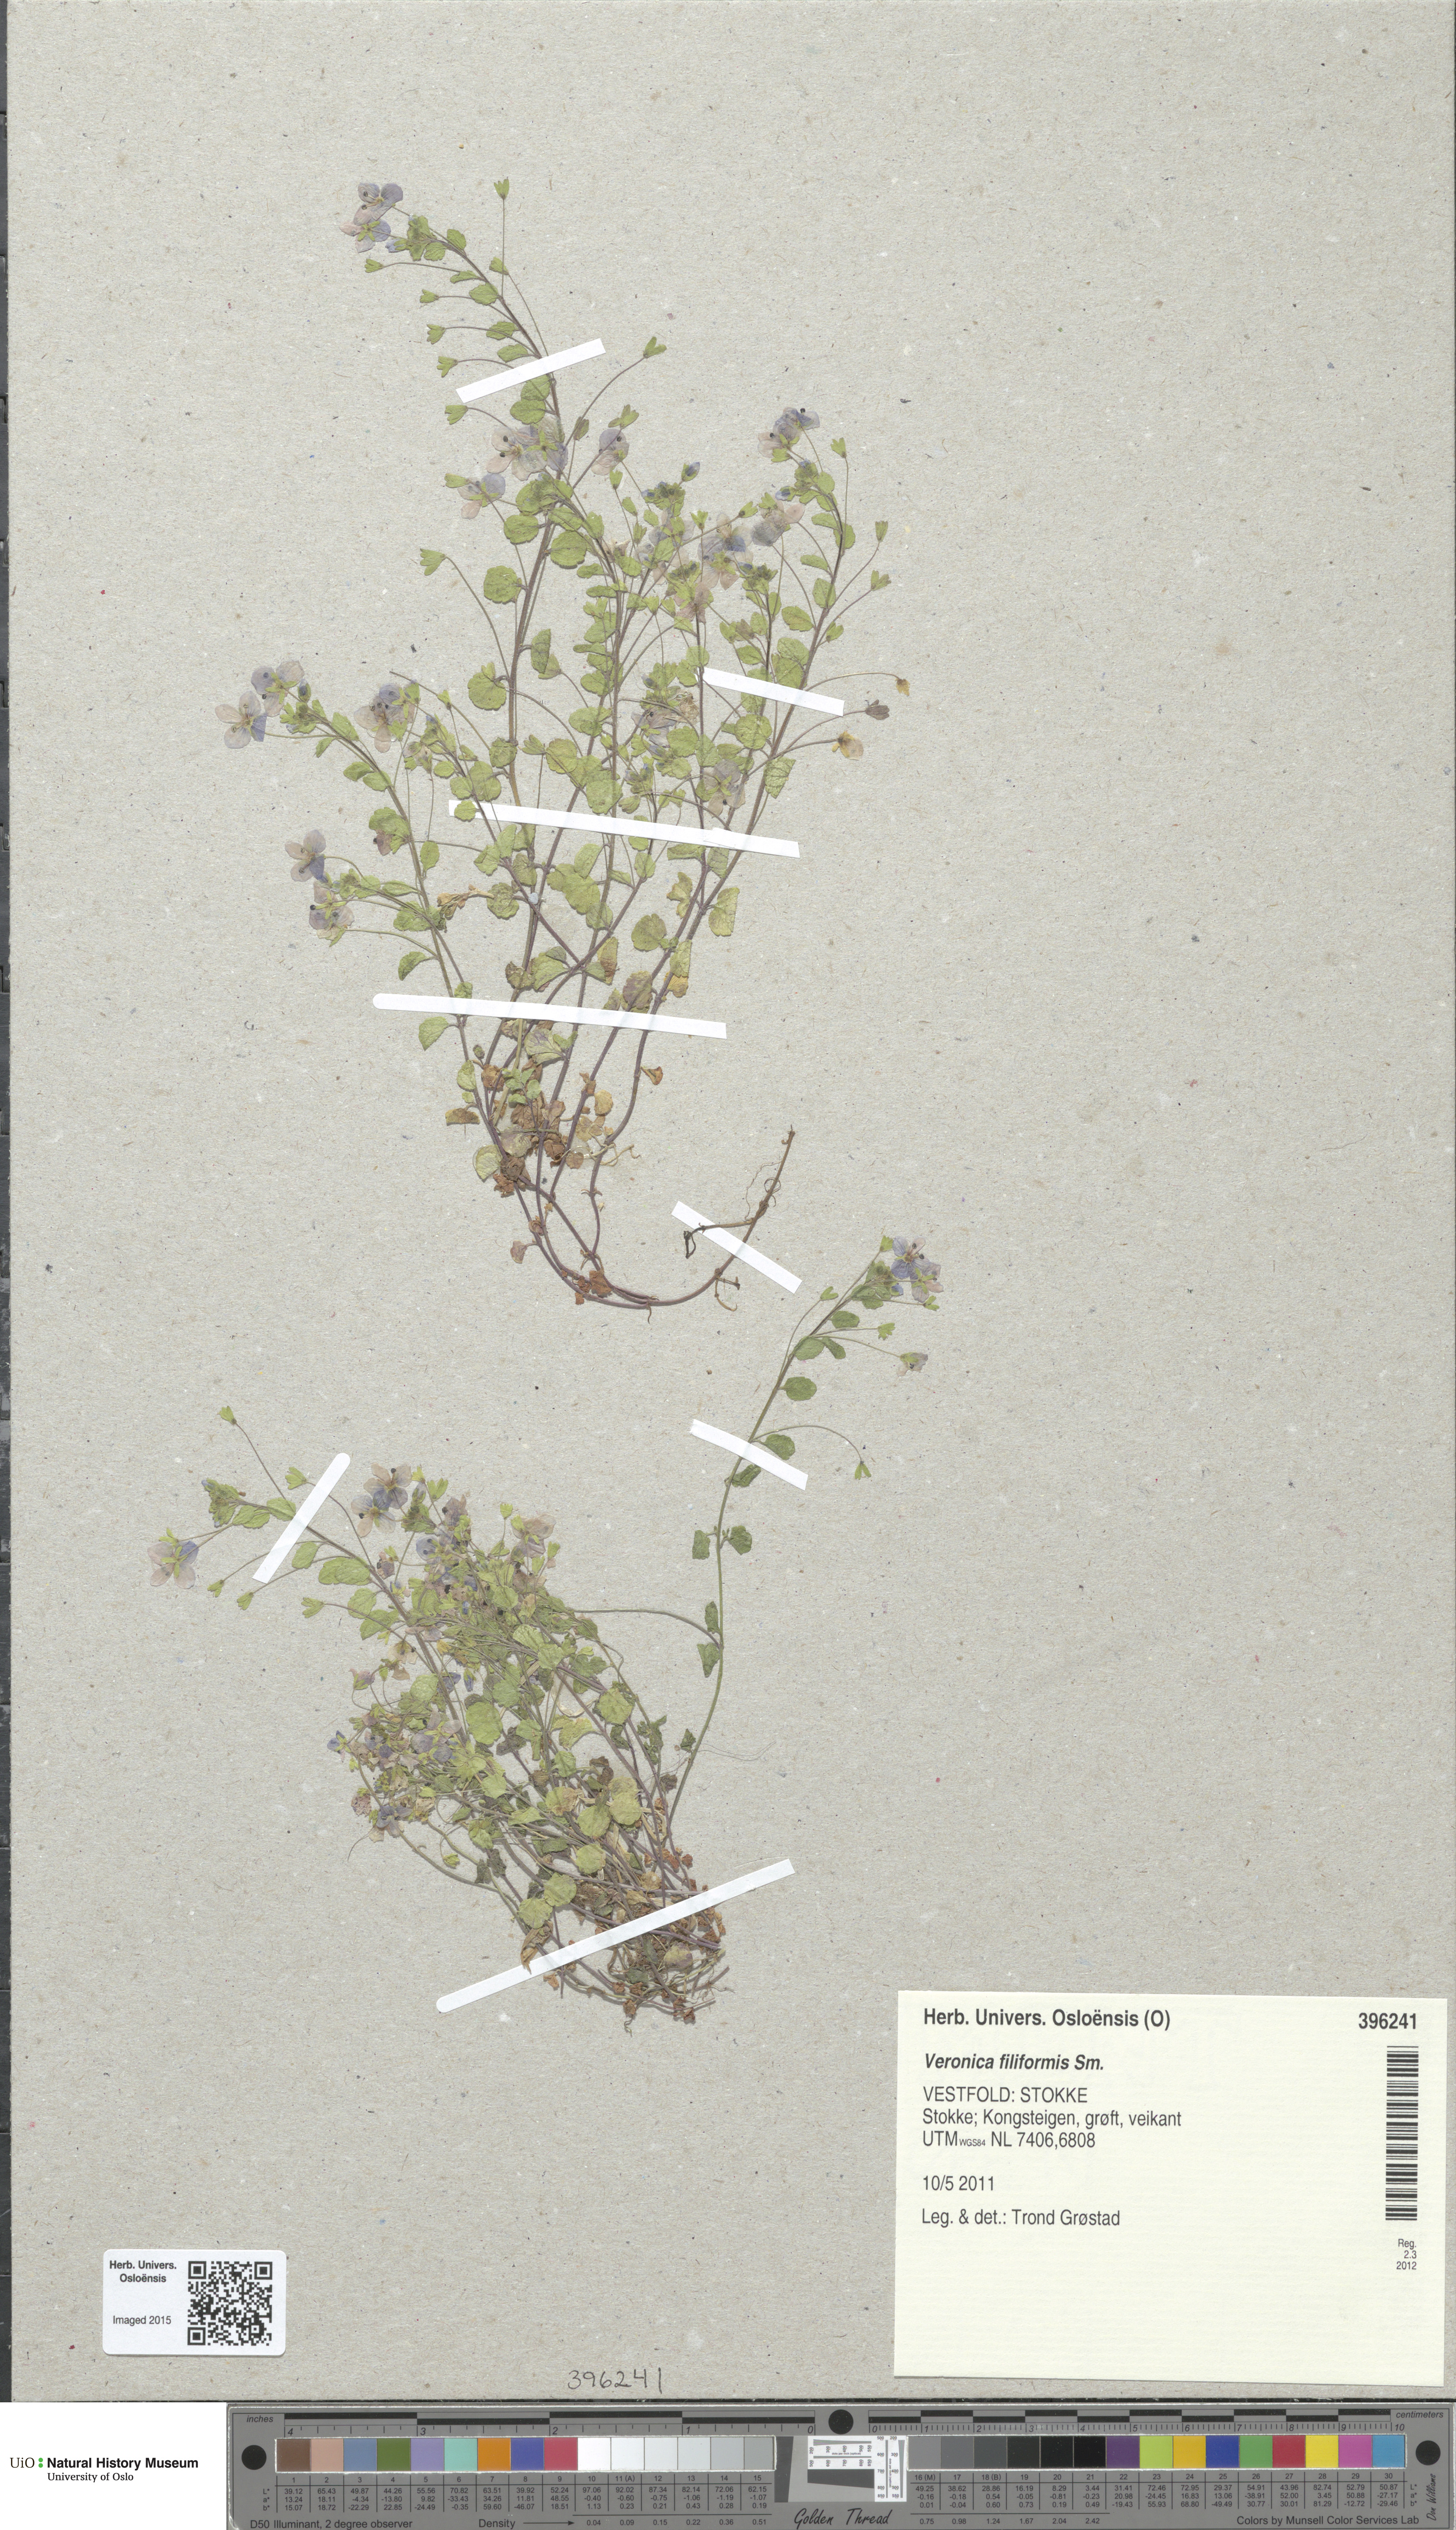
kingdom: Plantae
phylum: Tracheophyta
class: Magnoliopsida
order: Lamiales
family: Plantaginaceae
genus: Veronica
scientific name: Veronica filiformis
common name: Slender speedwell
